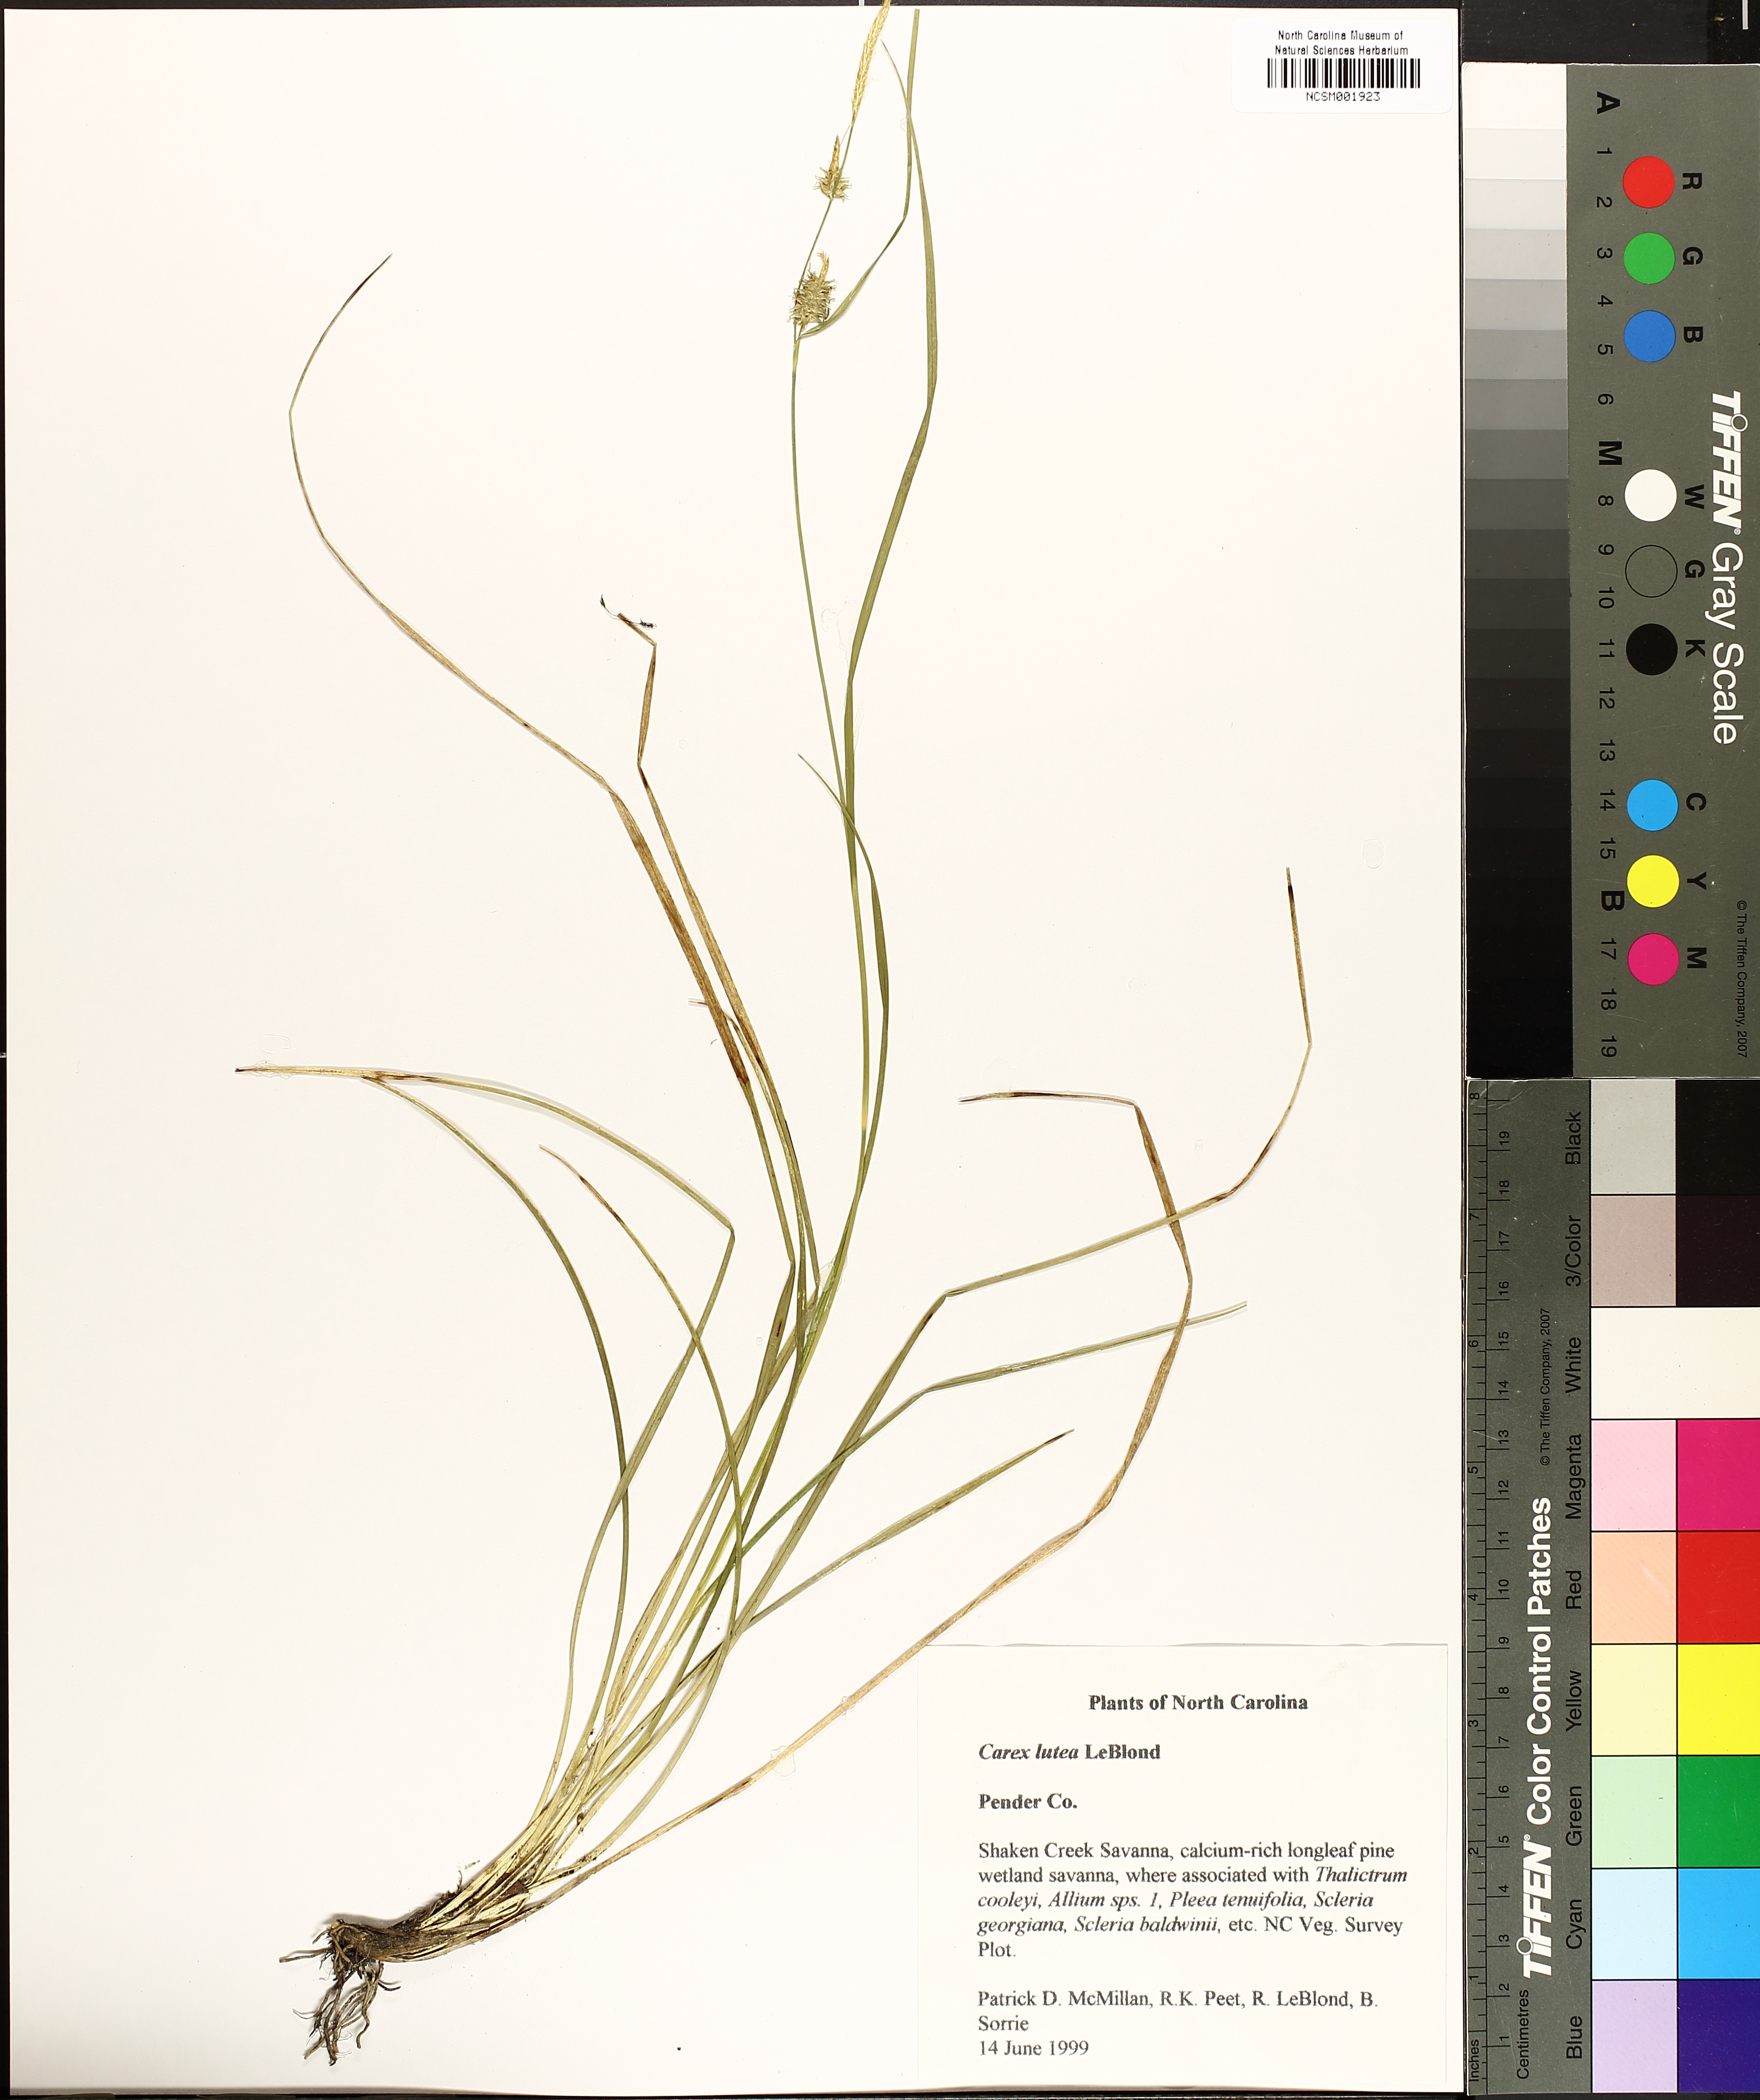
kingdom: Plantae
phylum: Tracheophyta
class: Liliopsida
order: Poales
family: Cyperaceae
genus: Carex
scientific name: Carex lutea
